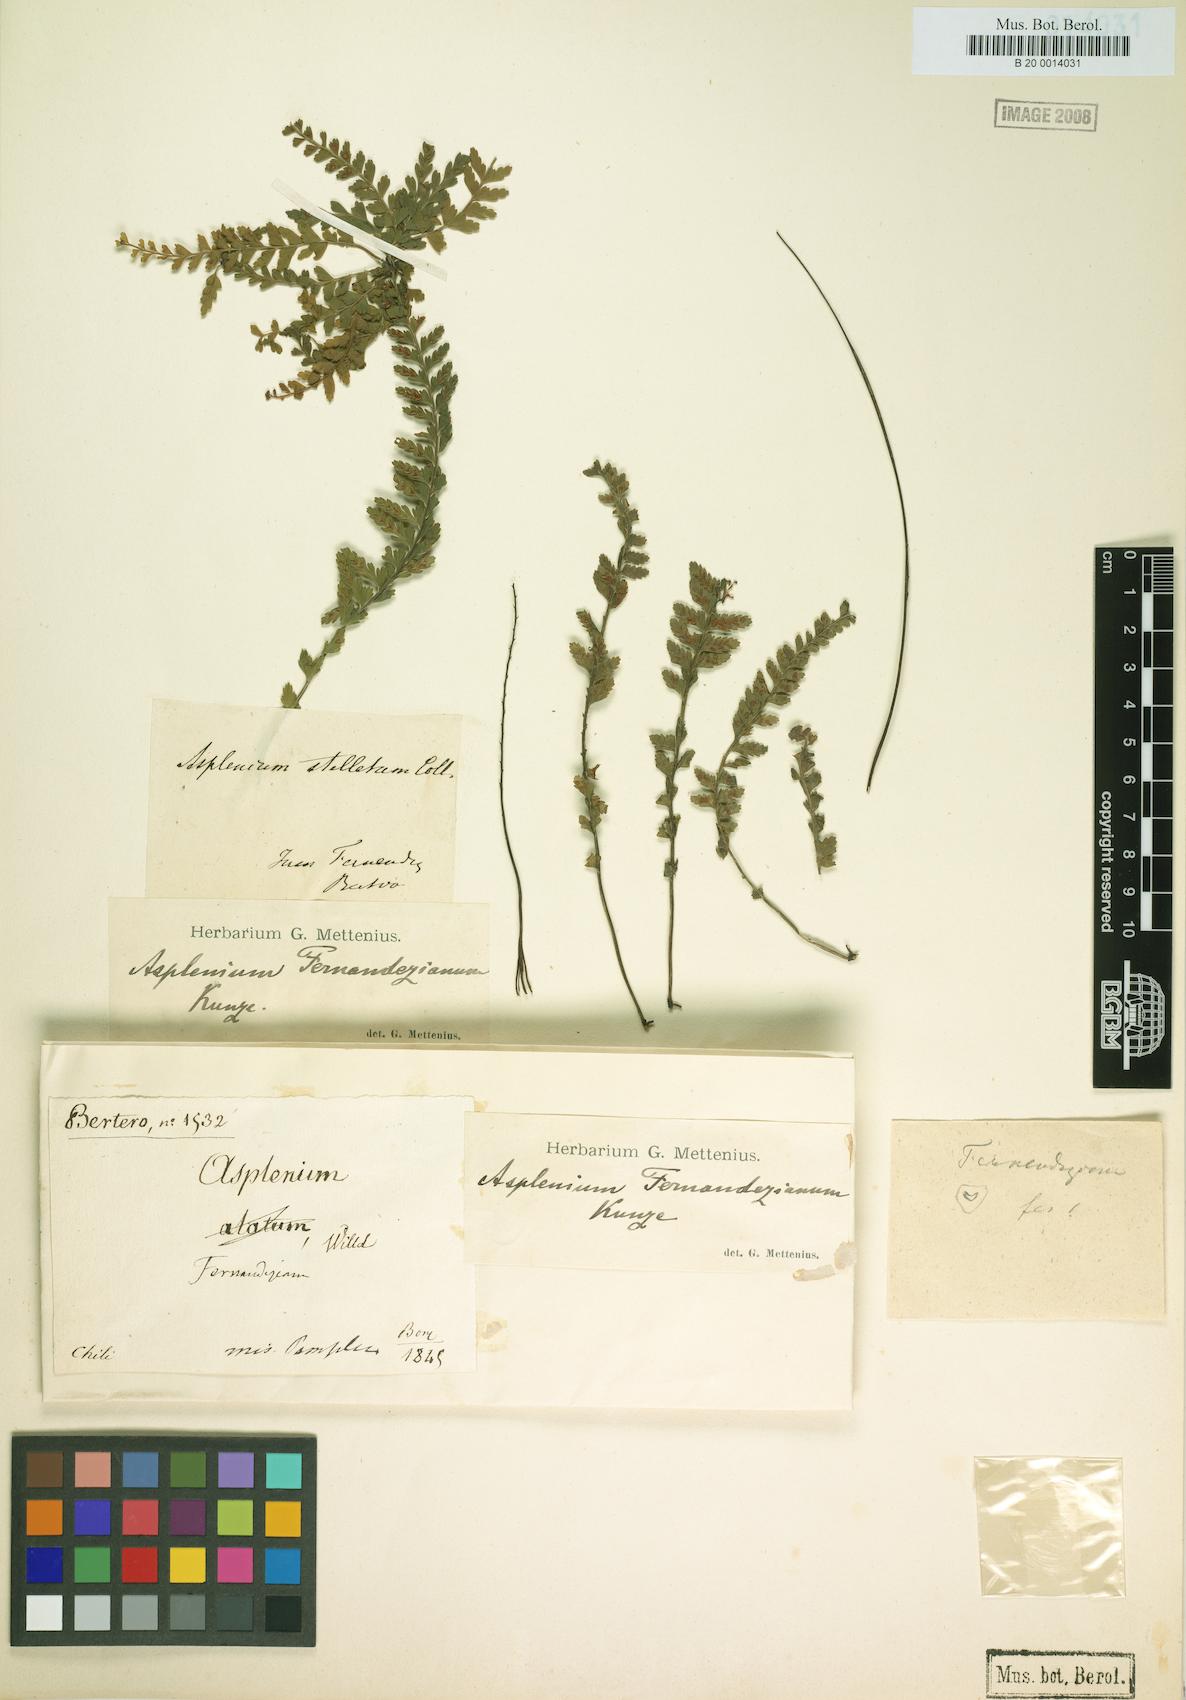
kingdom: Plantae
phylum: Tracheophyta
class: Polypodiopsida
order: Polypodiales
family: Aspleniaceae
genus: Asplenium
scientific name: Asplenium stellatum
